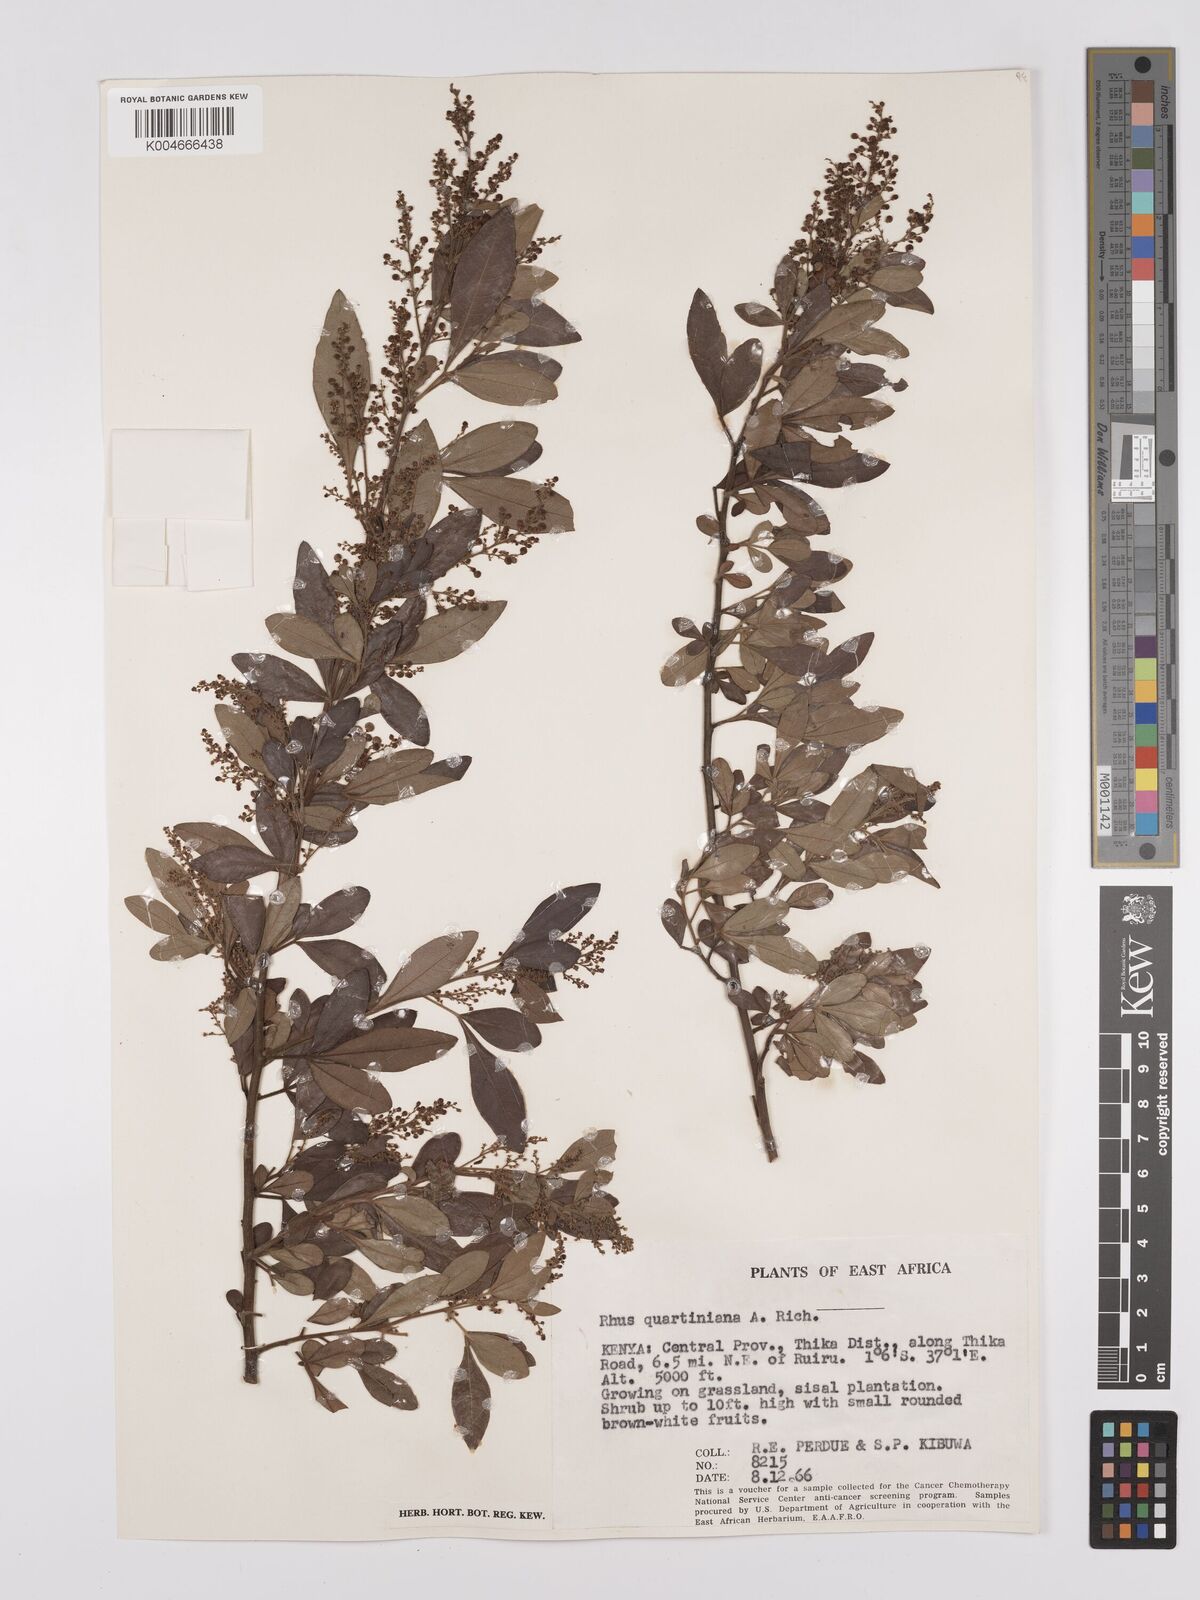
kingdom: Plantae
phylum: Tracheophyta
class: Magnoliopsida
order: Sapindales
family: Anacardiaceae
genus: Searsia
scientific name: Searsia quartiniana
